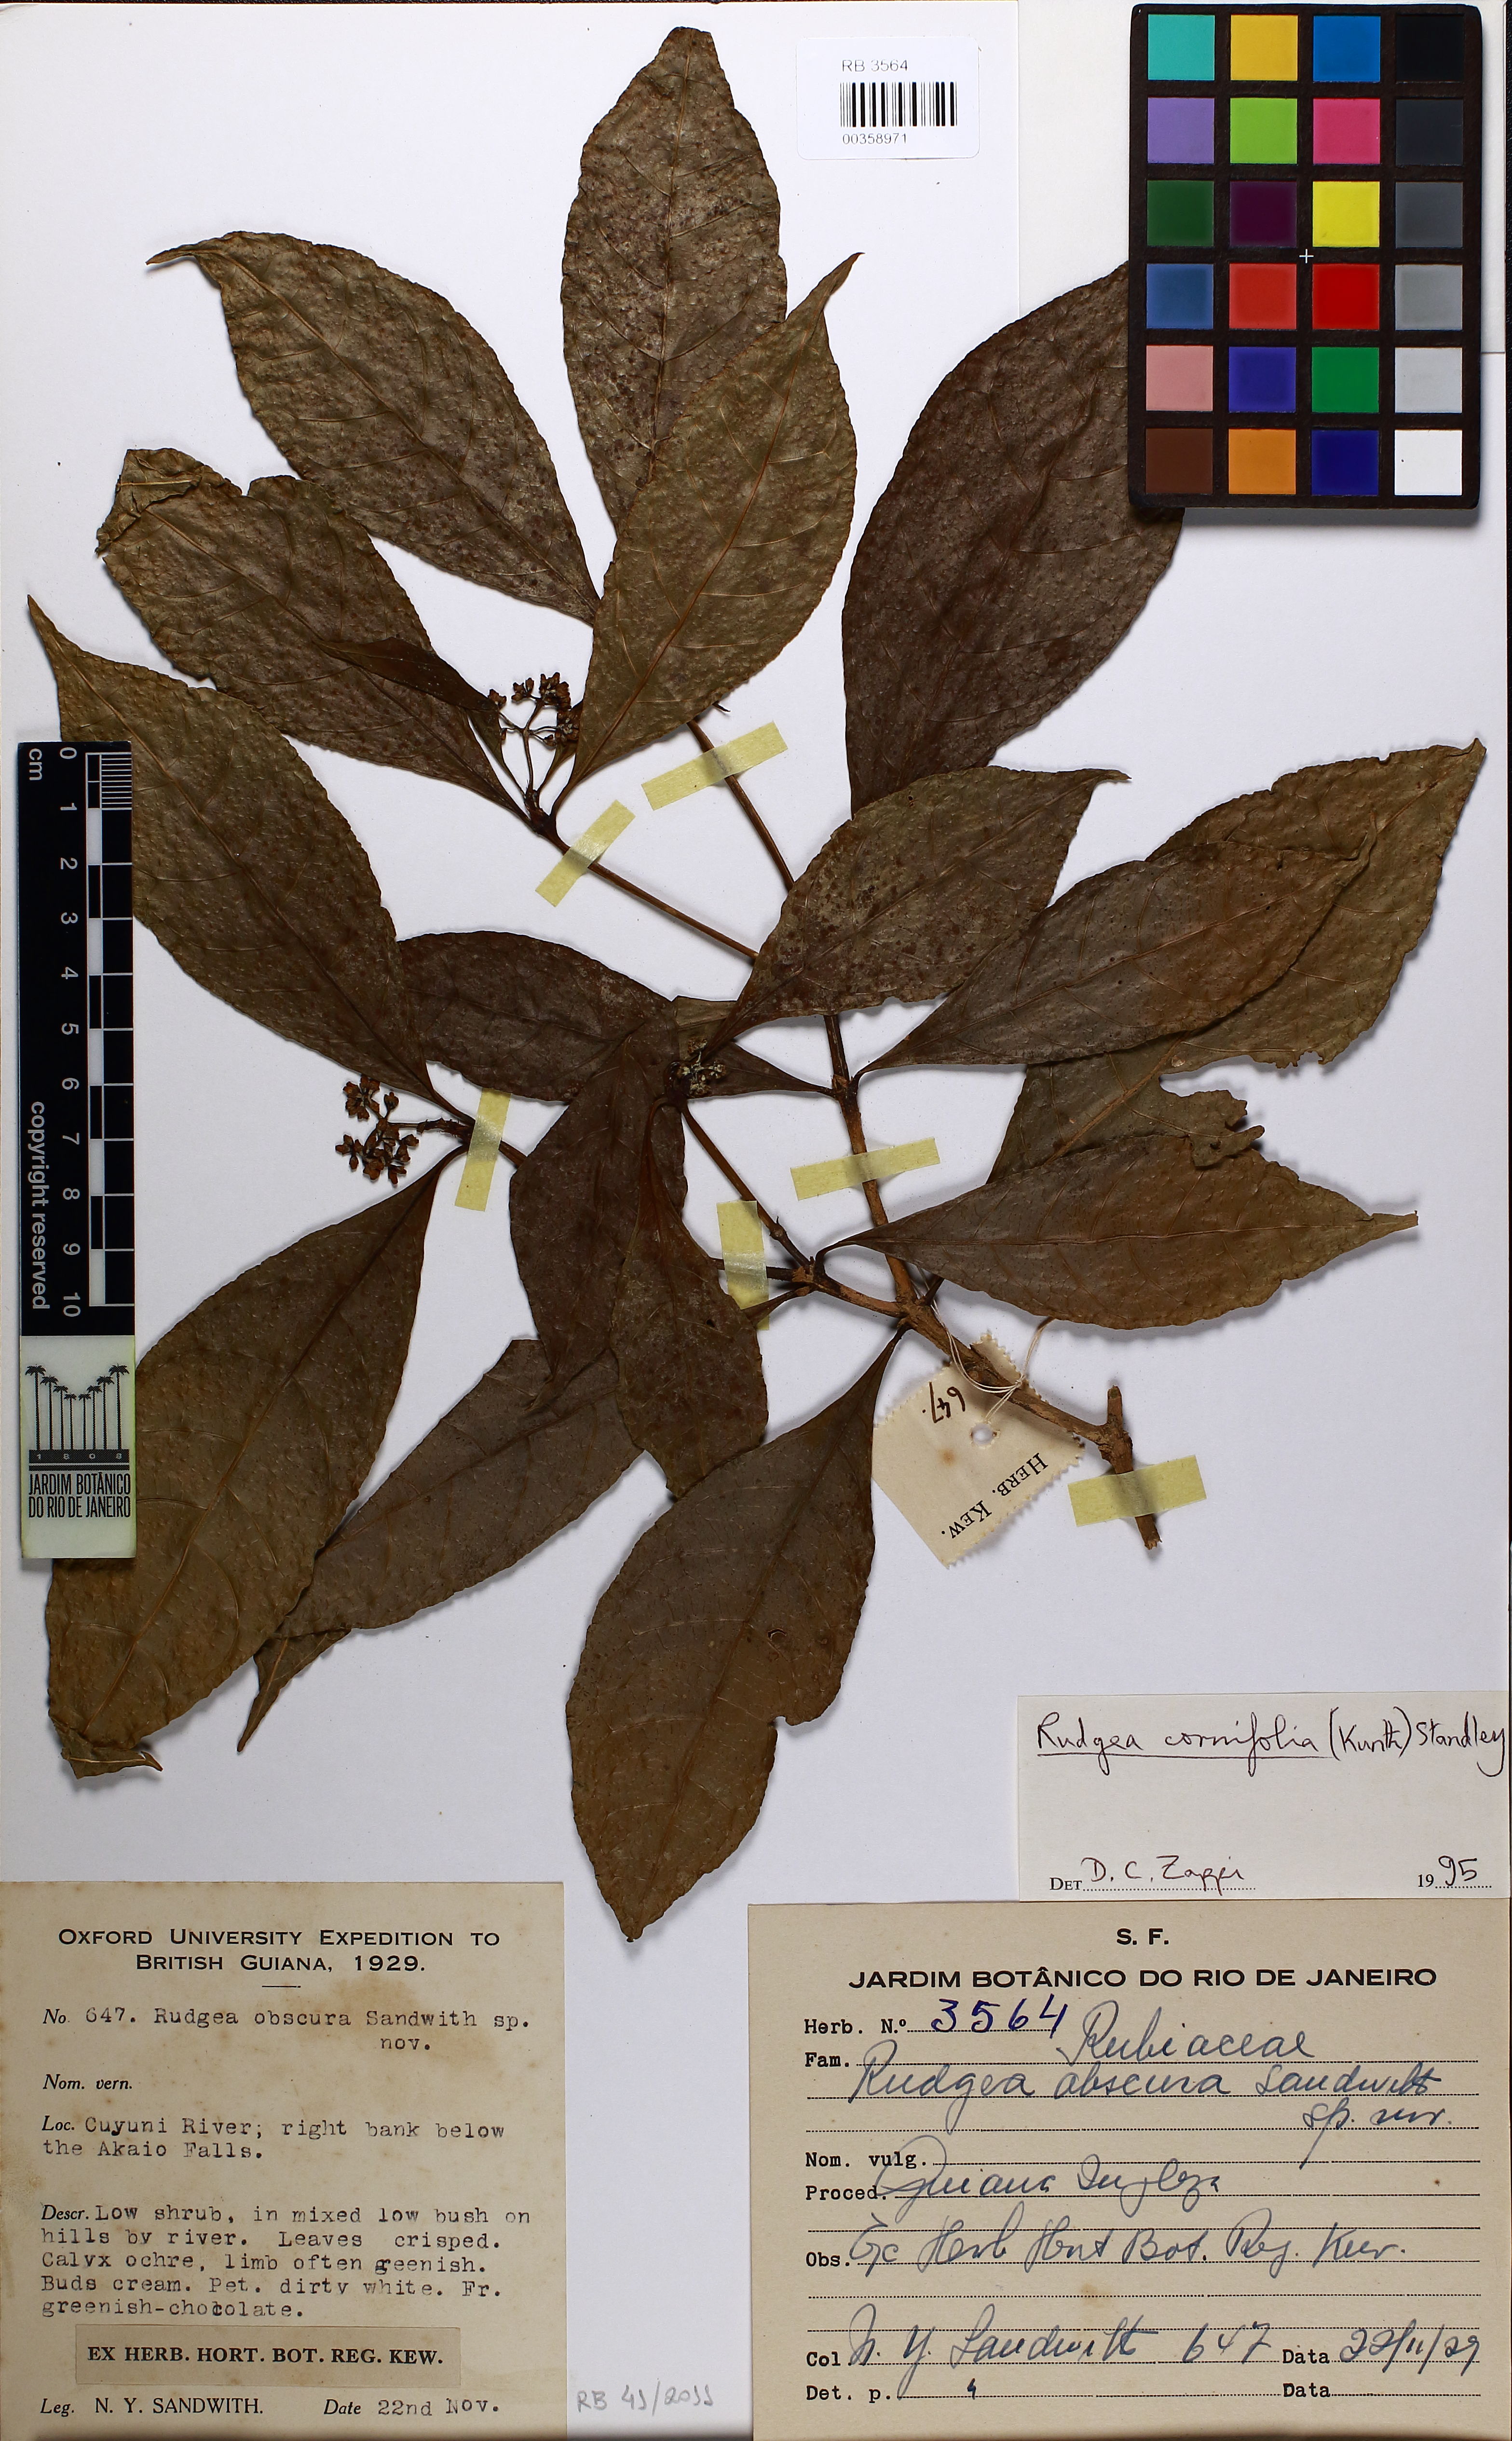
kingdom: Plantae
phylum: Tracheophyta
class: Magnoliopsida
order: Gentianales
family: Rubiaceae
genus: Rudgea
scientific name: Rudgea cornifolia
